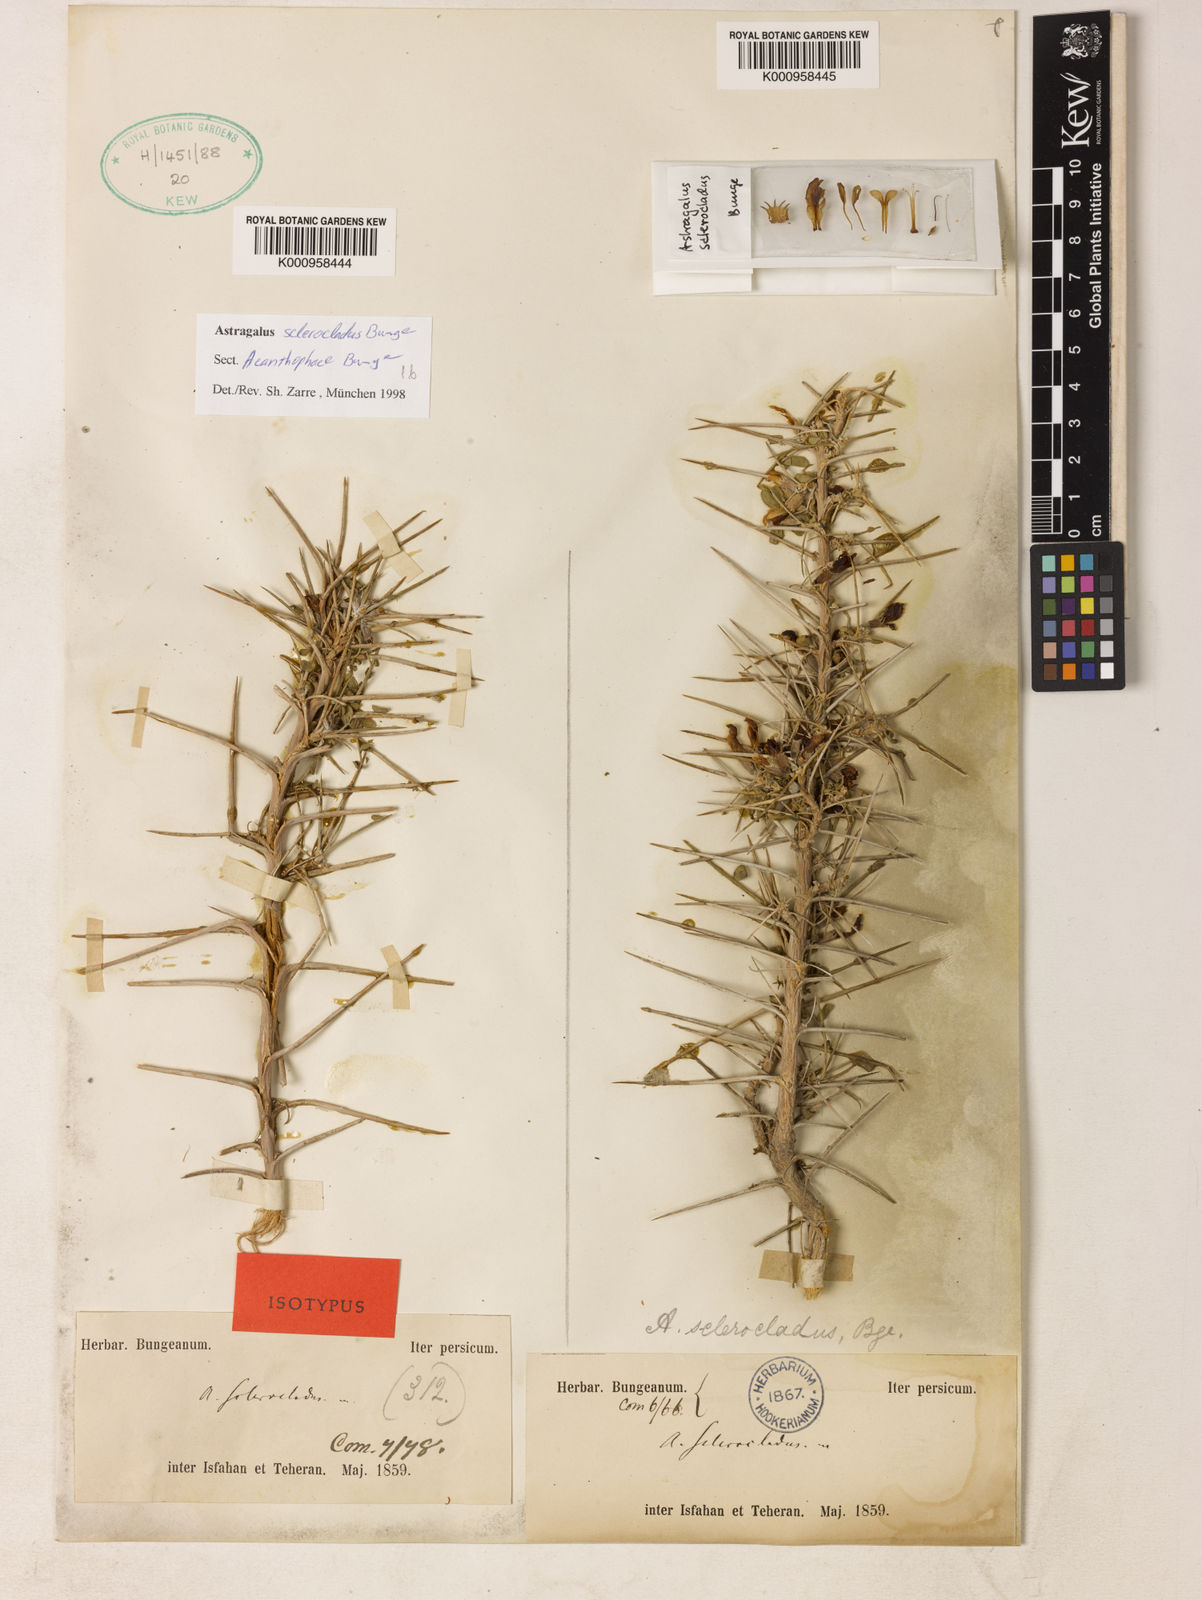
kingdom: Plantae
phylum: Tracheophyta
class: Magnoliopsida
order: Fabales
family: Fabaceae
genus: Astragalus
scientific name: Astragalus
